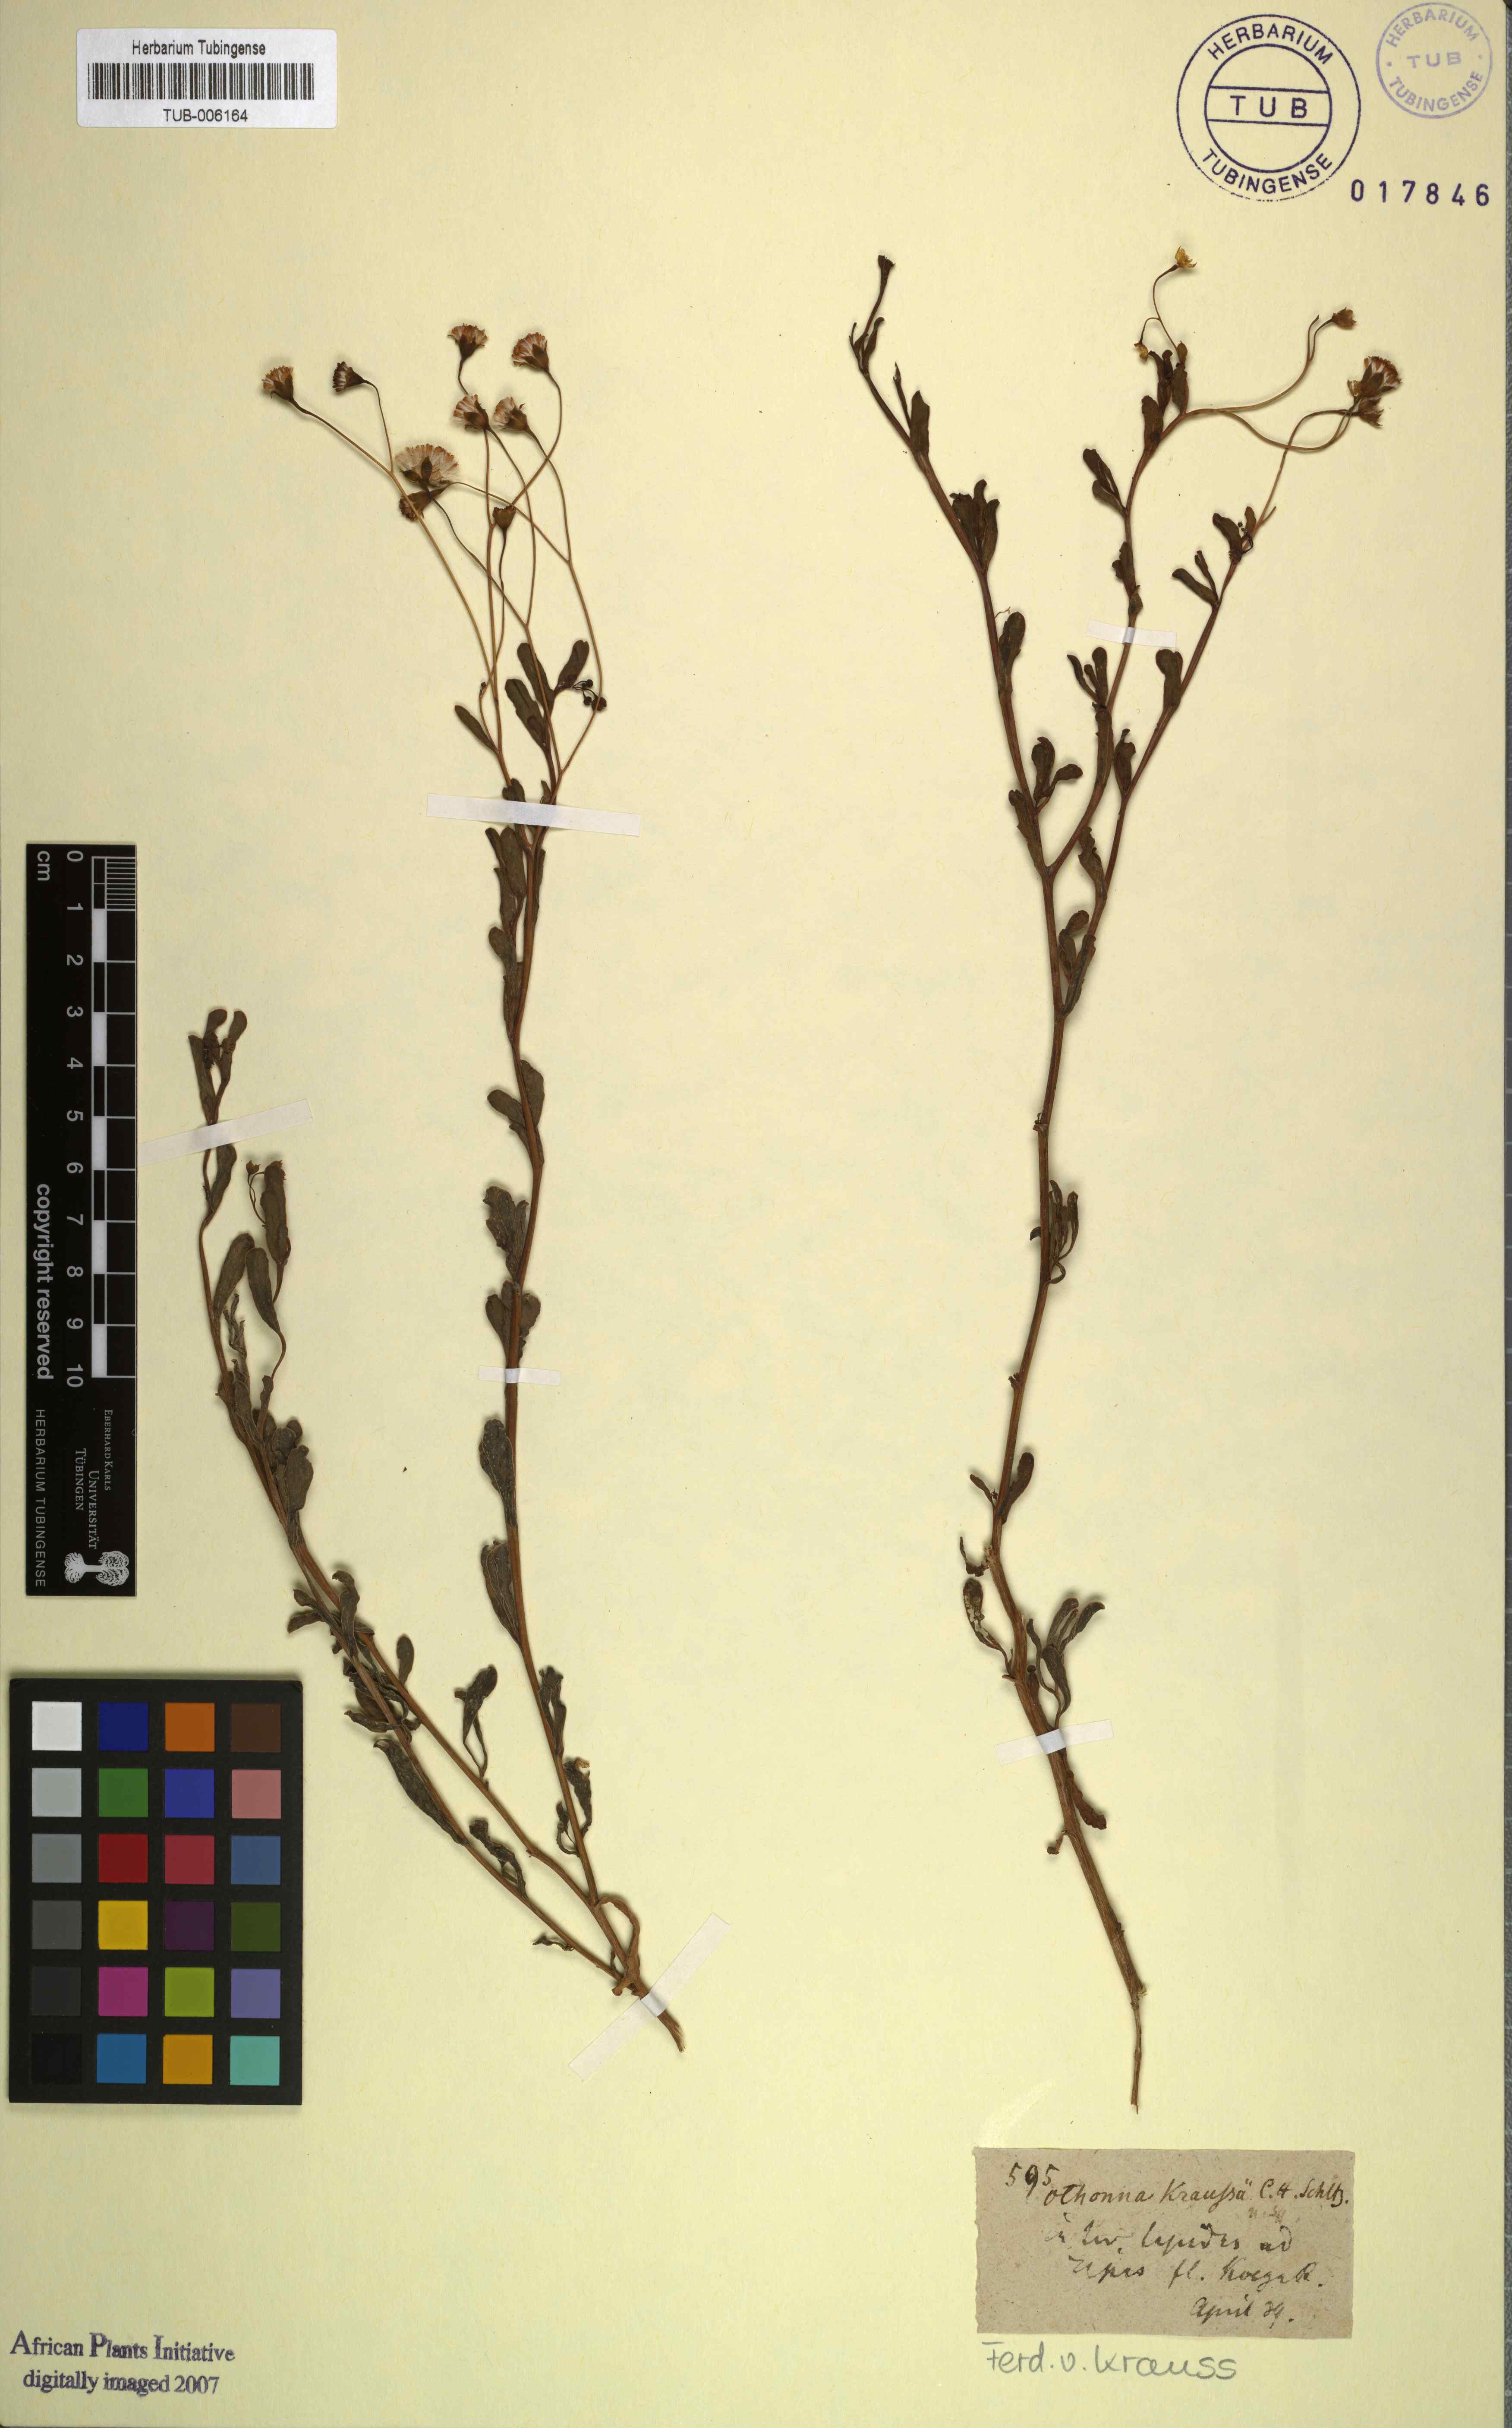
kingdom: Plantae
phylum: Tracheophyta
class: Magnoliopsida
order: Asterales
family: Asteraceae
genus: Hertia
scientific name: Hertia kraussii
